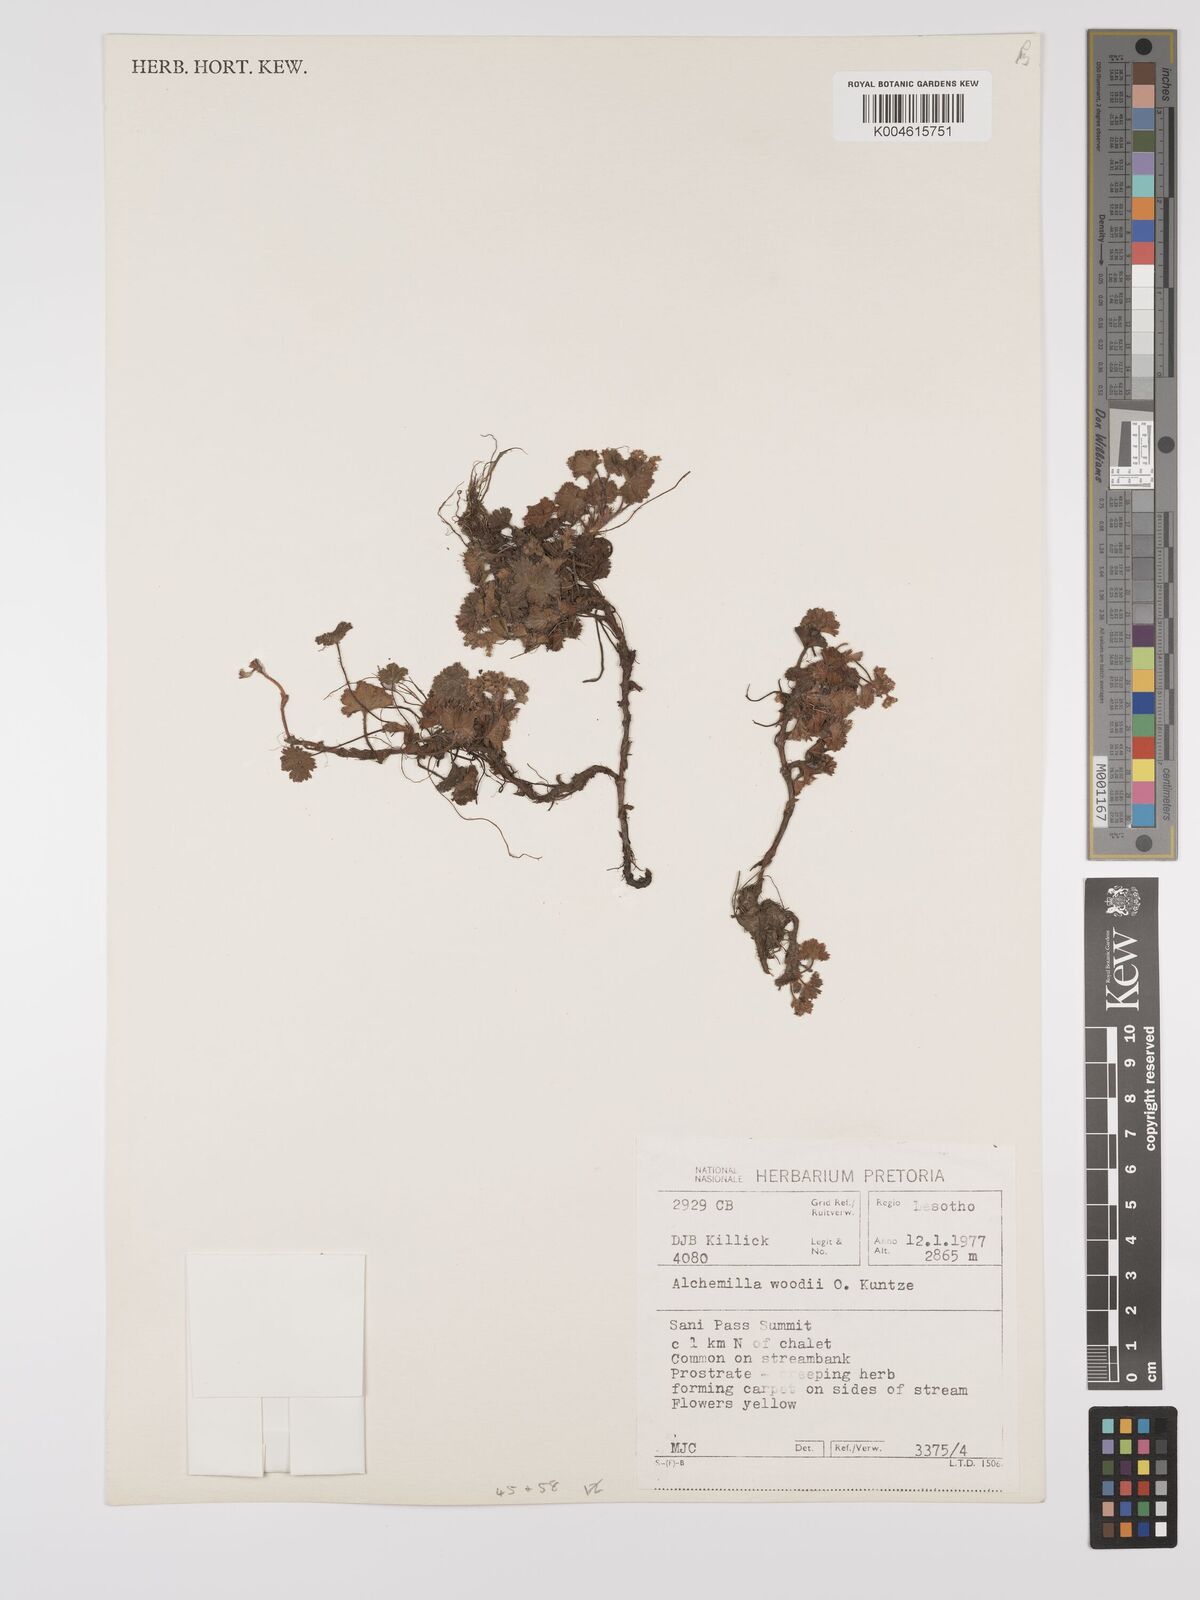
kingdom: Plantae
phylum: Tracheophyta
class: Magnoliopsida
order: Rosales
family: Rosaceae
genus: Alchemilla
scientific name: Alchemilla woodii
